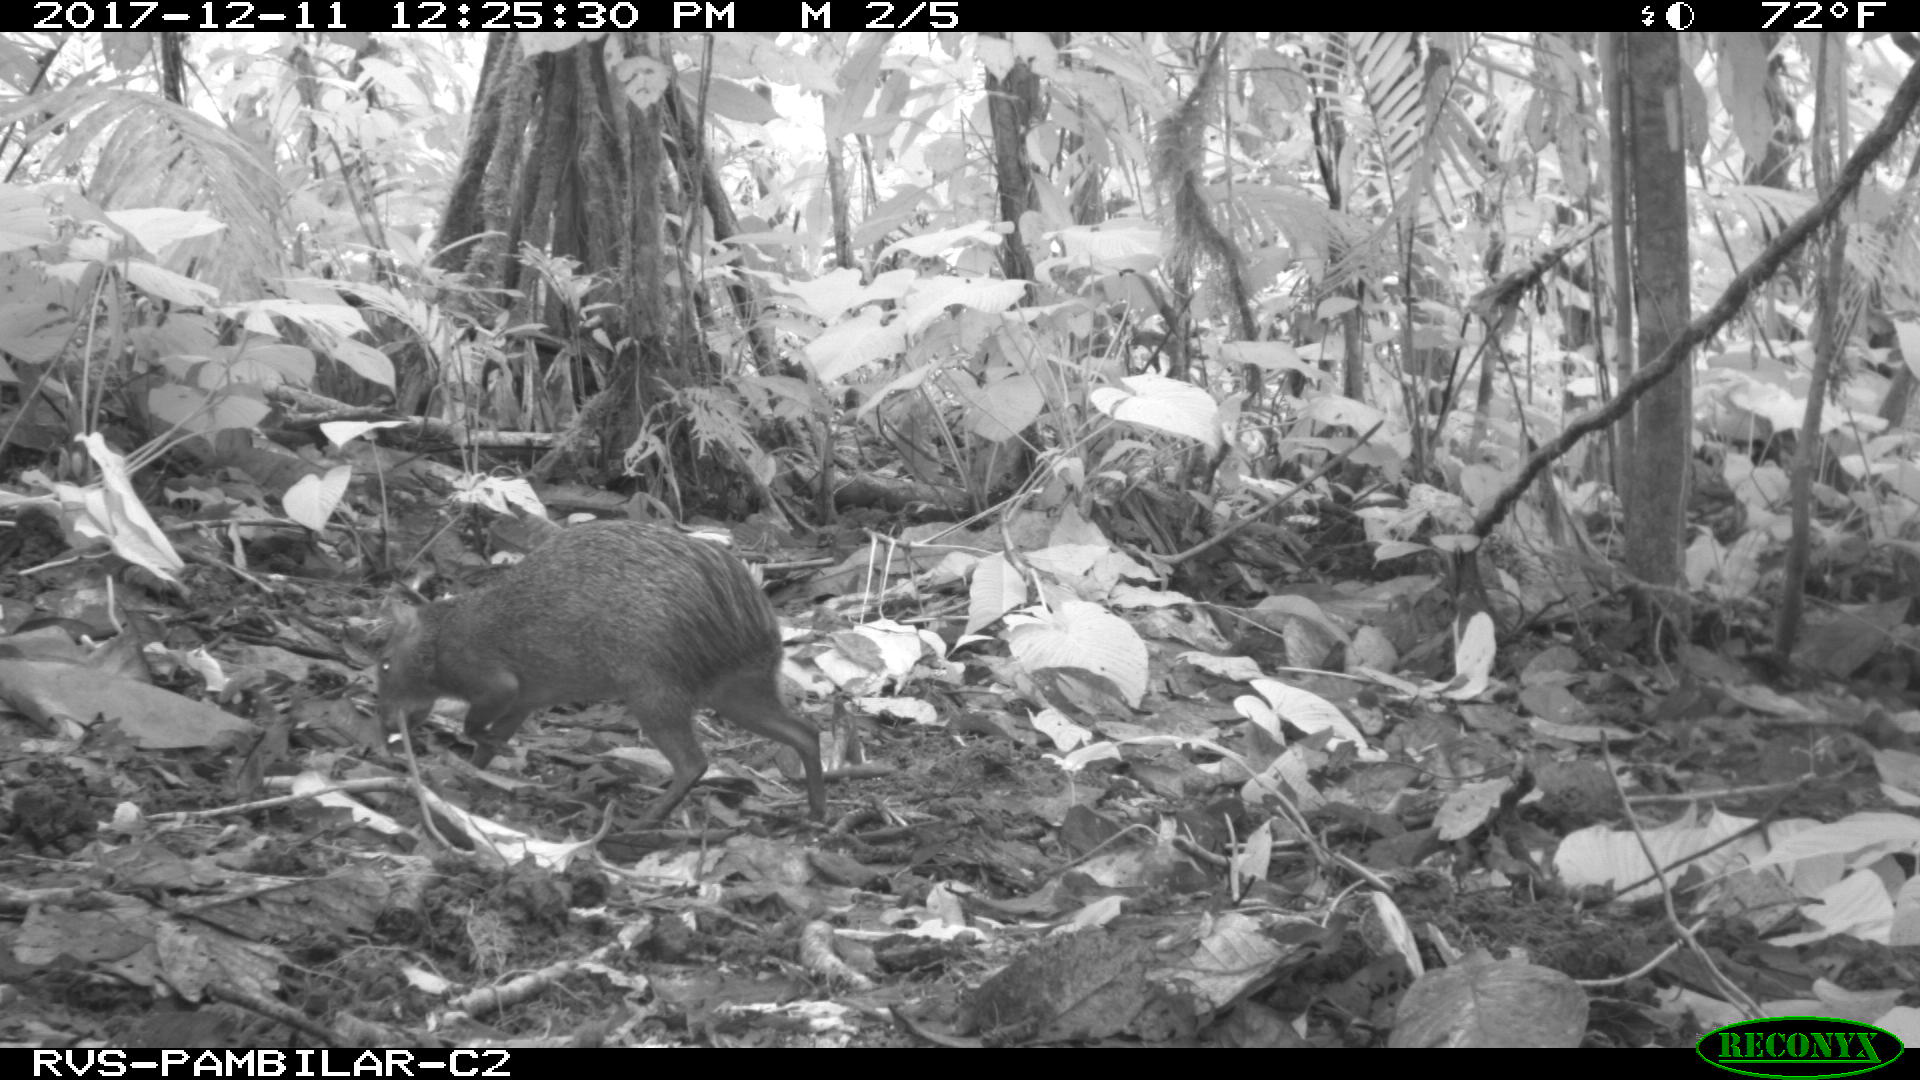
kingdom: Animalia
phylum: Chordata
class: Mammalia
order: Rodentia
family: Dasyproctidae
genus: Dasyprocta
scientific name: Dasyprocta punctata
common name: Central american agouti
